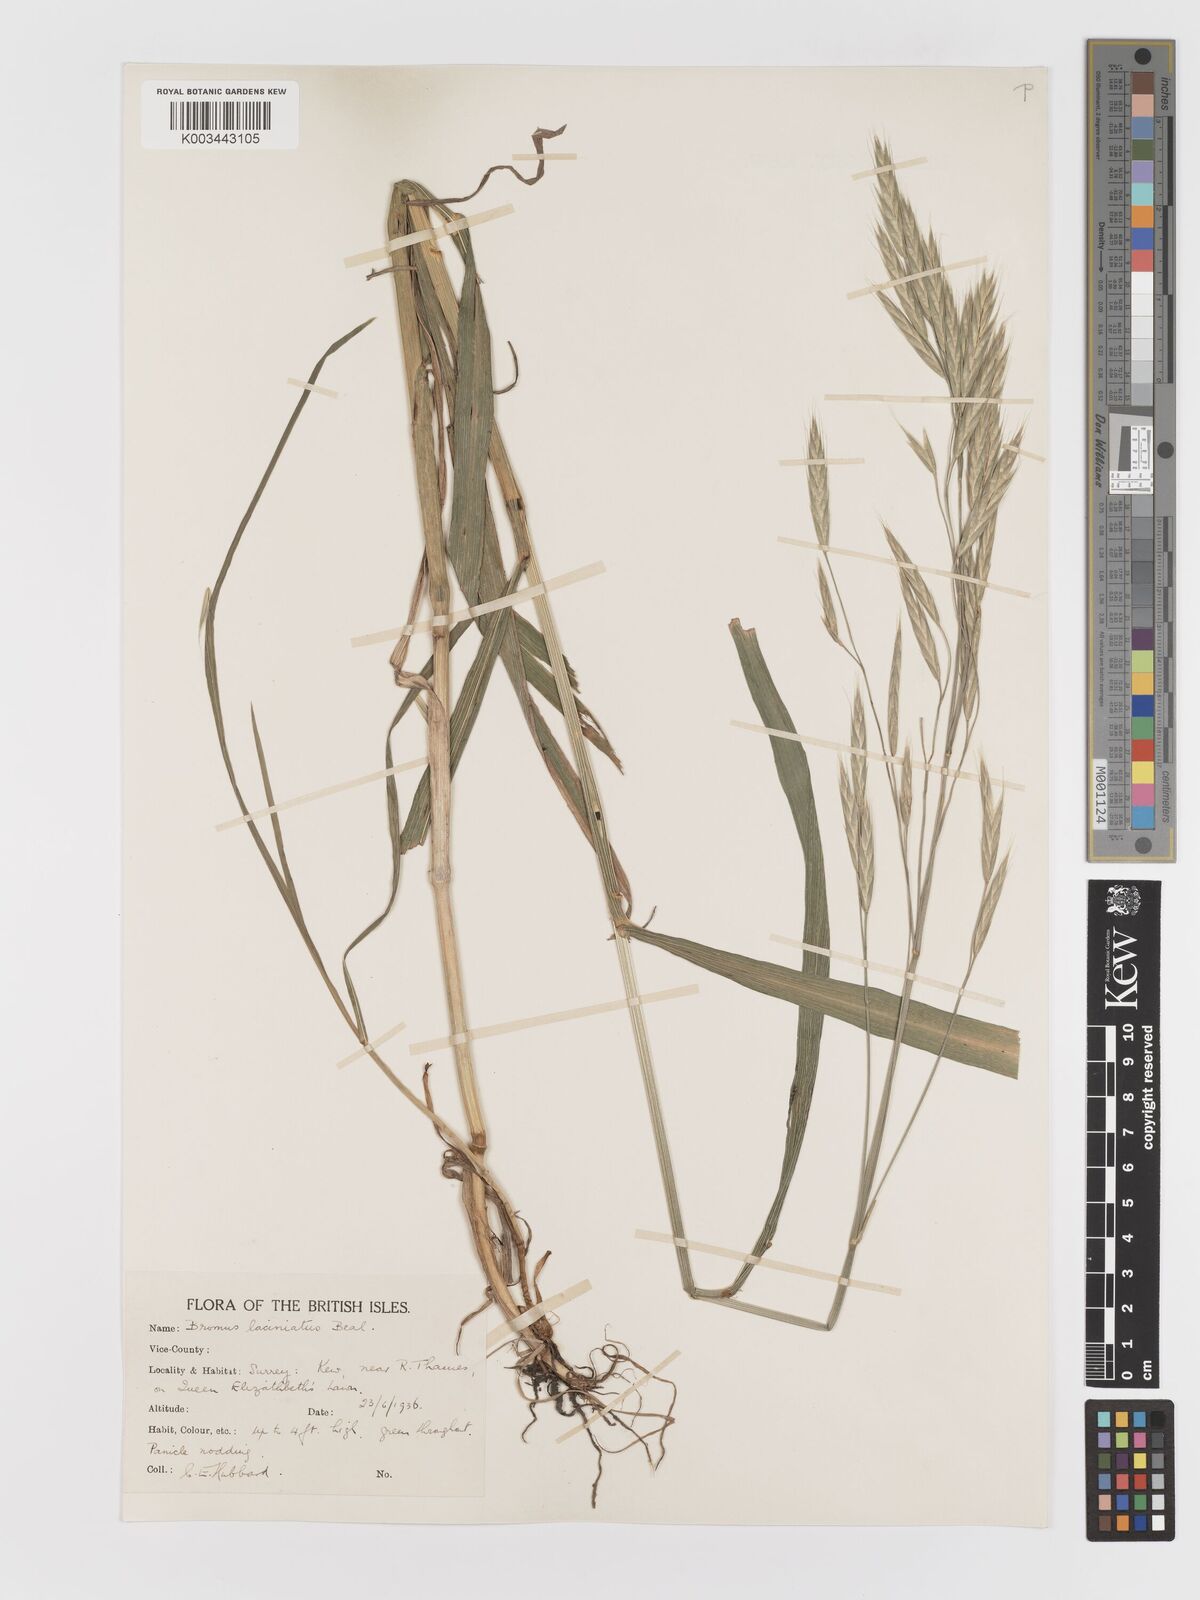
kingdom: Plantae
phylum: Tracheophyta
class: Liliopsida
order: Poales
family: Poaceae
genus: Bromus
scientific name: Bromus carinatus
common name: Mountain brome
